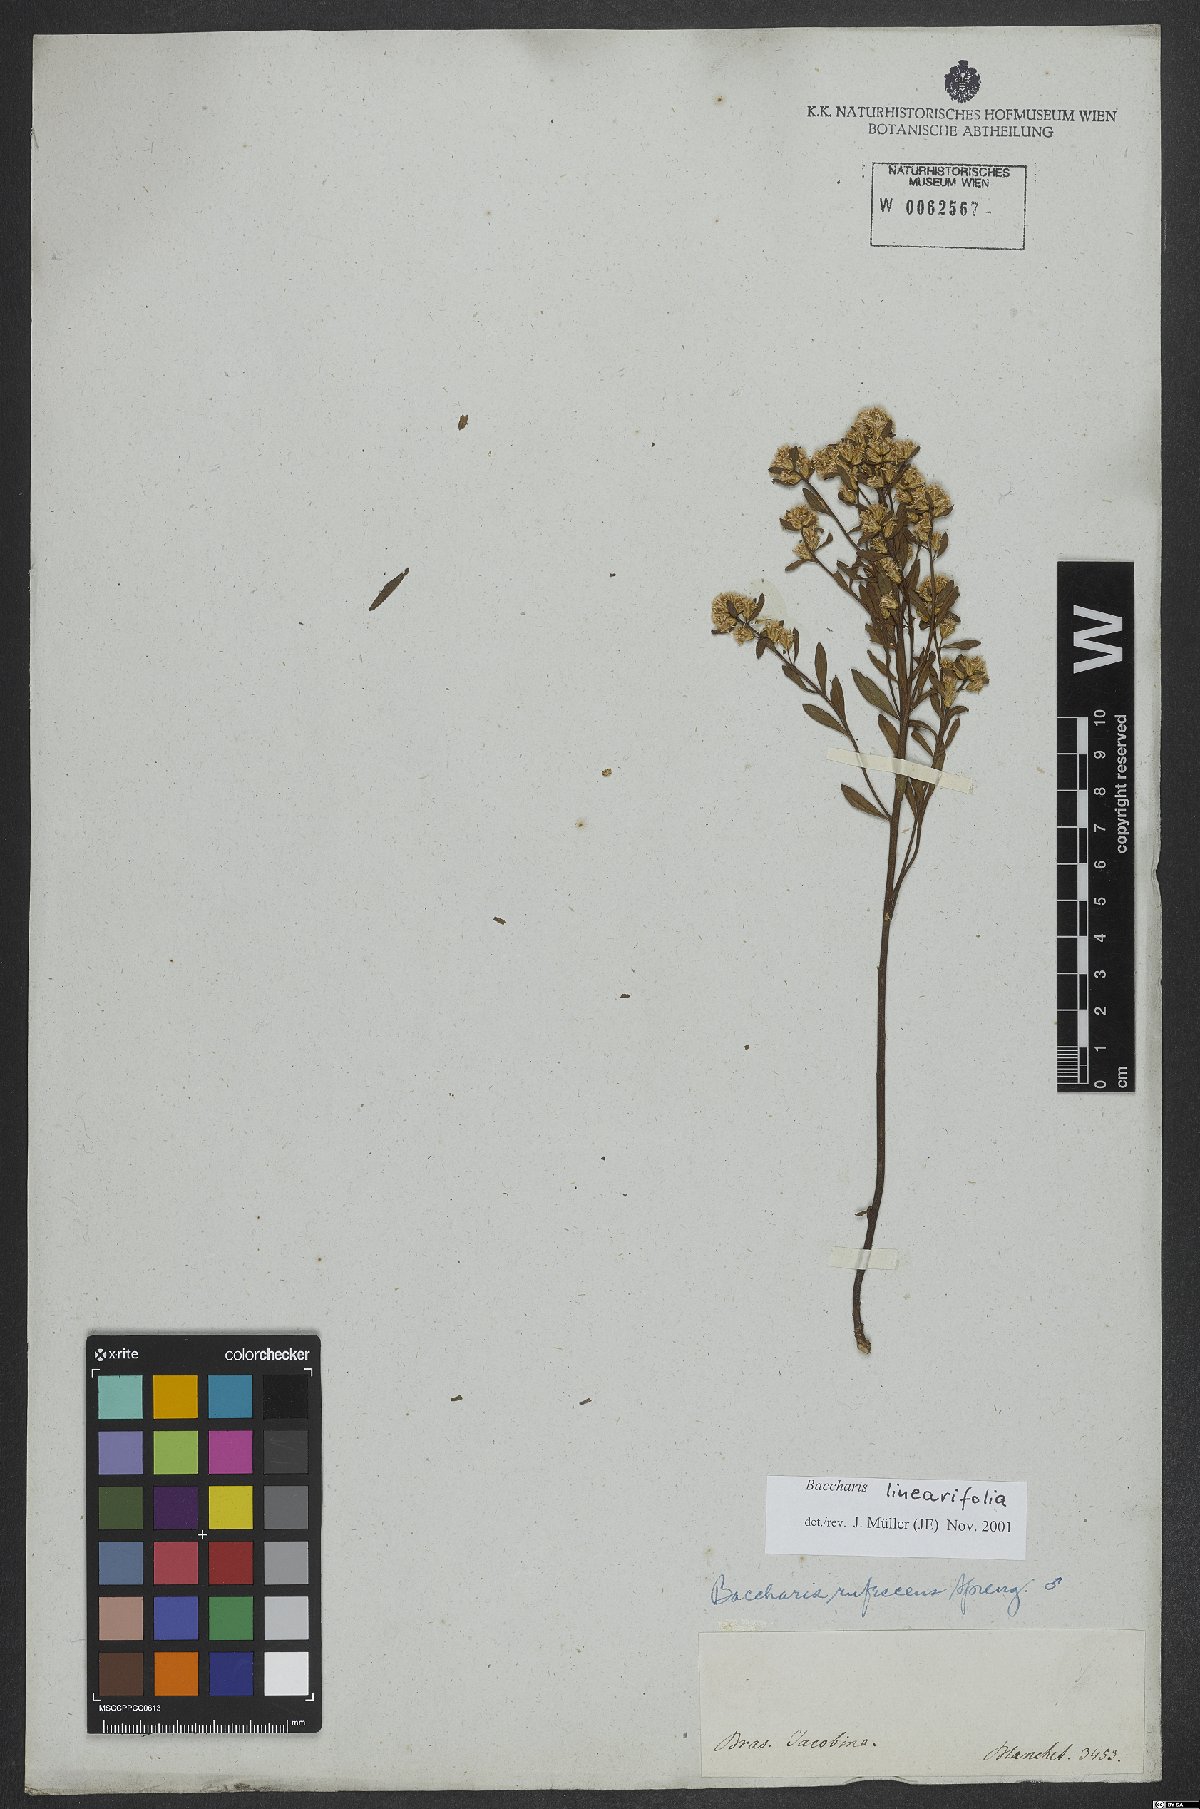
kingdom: Plantae
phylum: Tracheophyta
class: Magnoliopsida
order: Asterales
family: Asteraceae
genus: Baccharis
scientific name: Baccharis linearifolia
